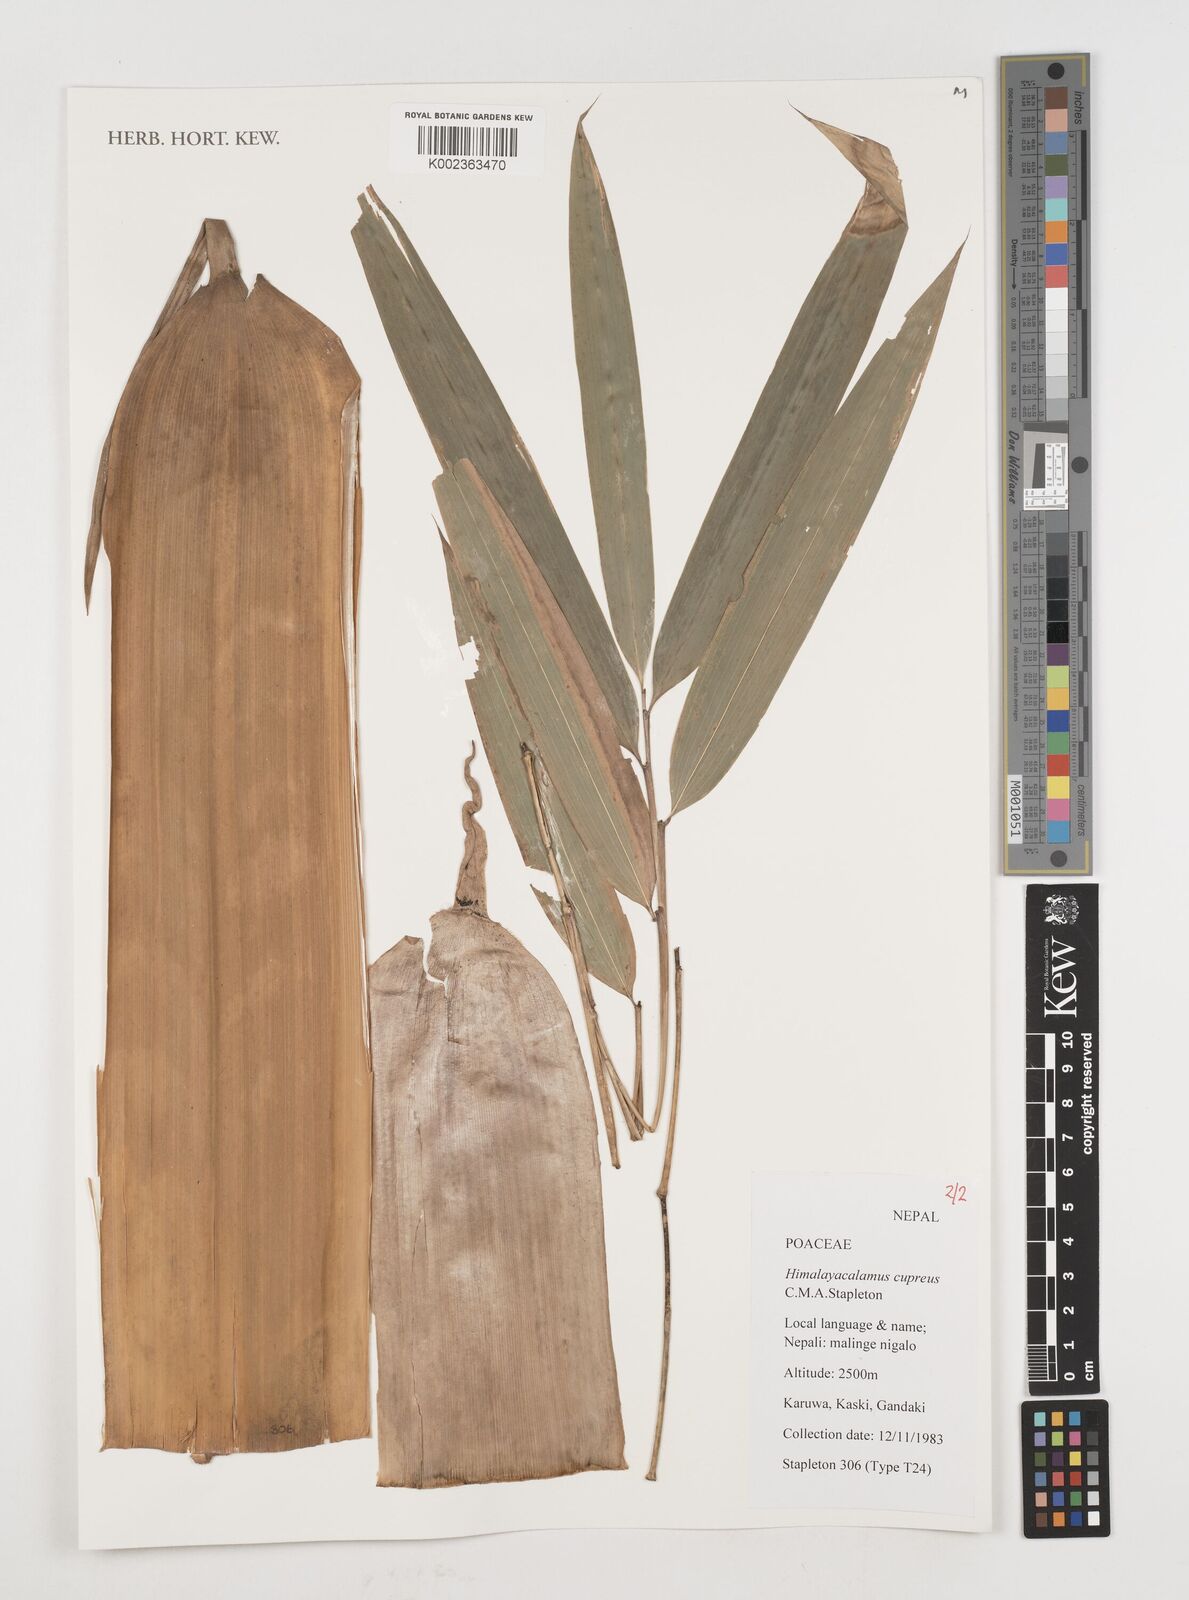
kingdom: Plantae
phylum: Tracheophyta
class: Liliopsida
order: Poales
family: Poaceae
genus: Himalayacalamus
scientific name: Himalayacalamus cupreus
